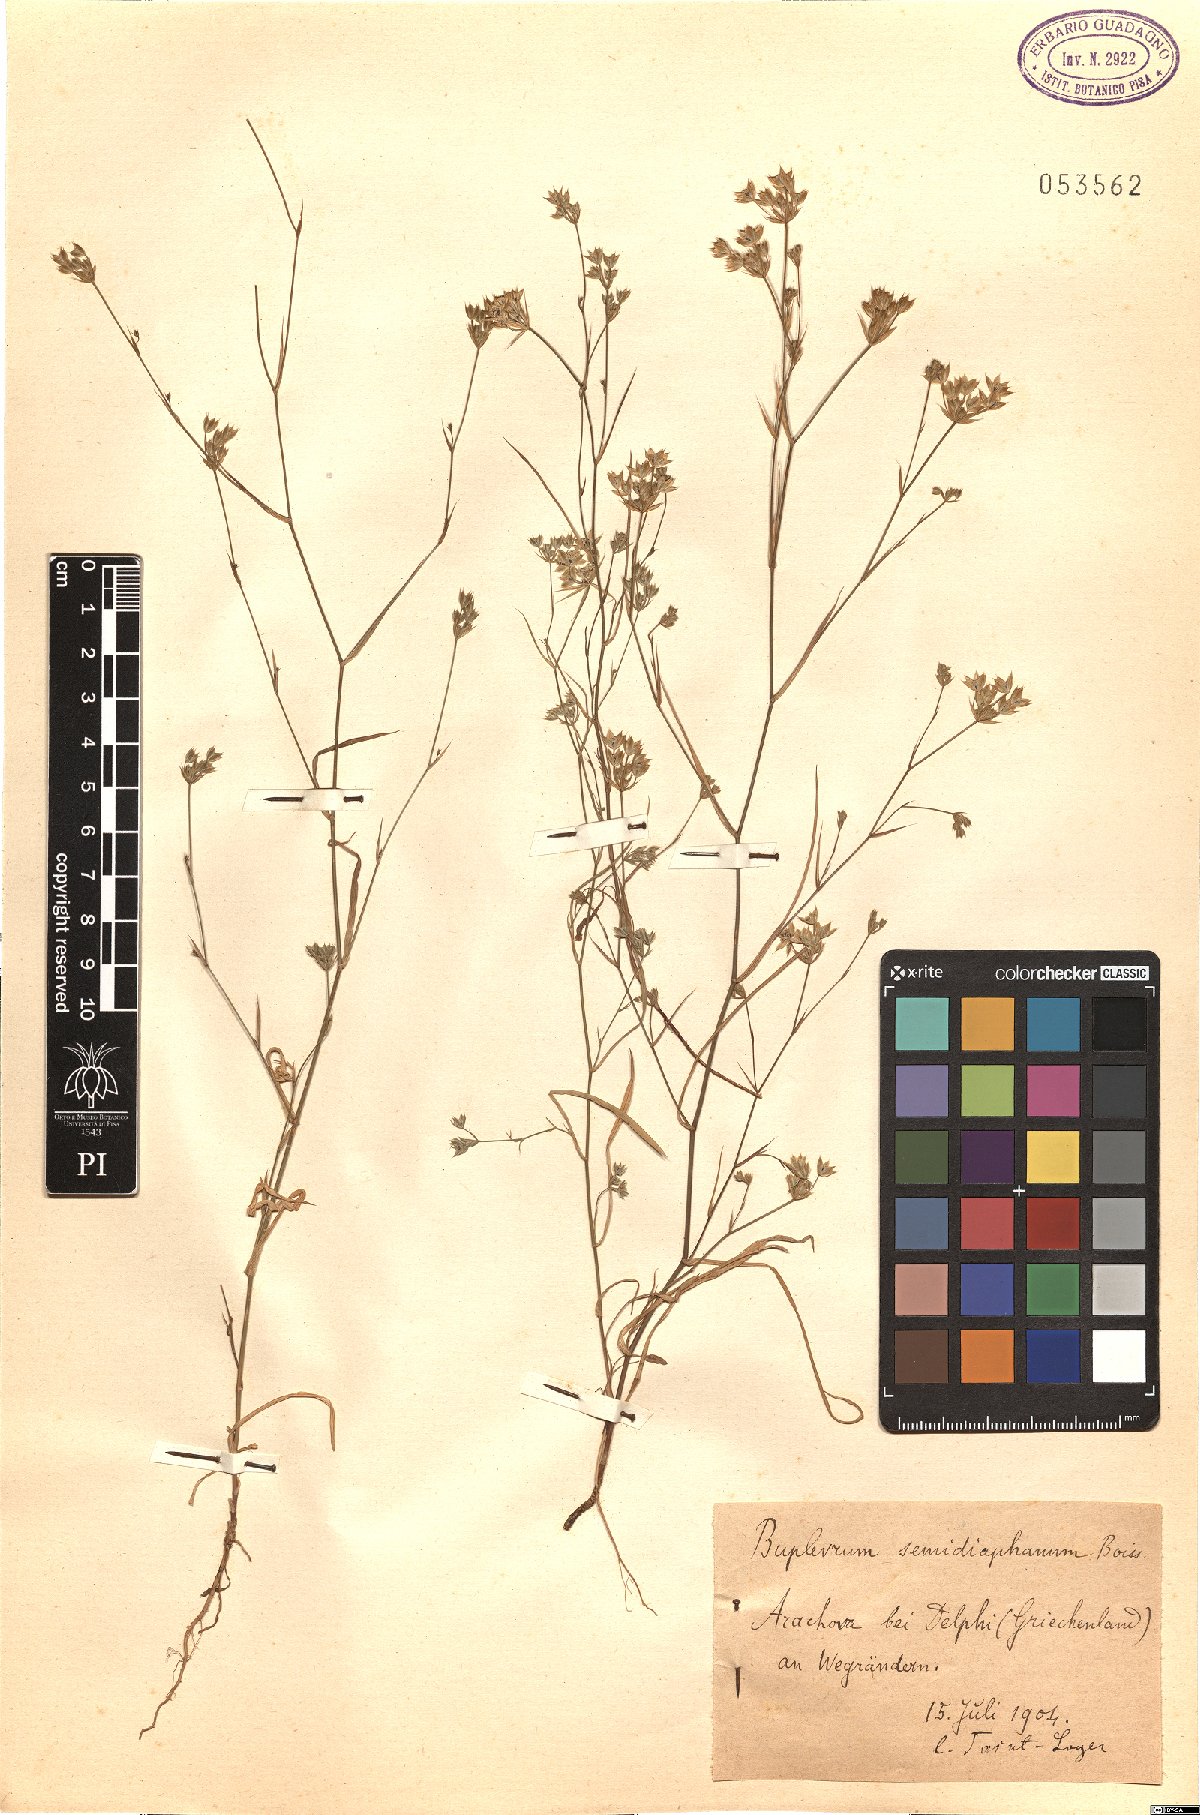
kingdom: Plantae
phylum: Tracheophyta
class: Magnoliopsida
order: Apiales
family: Apiaceae
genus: Bupleurum
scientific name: Bupleurum glumaceum
